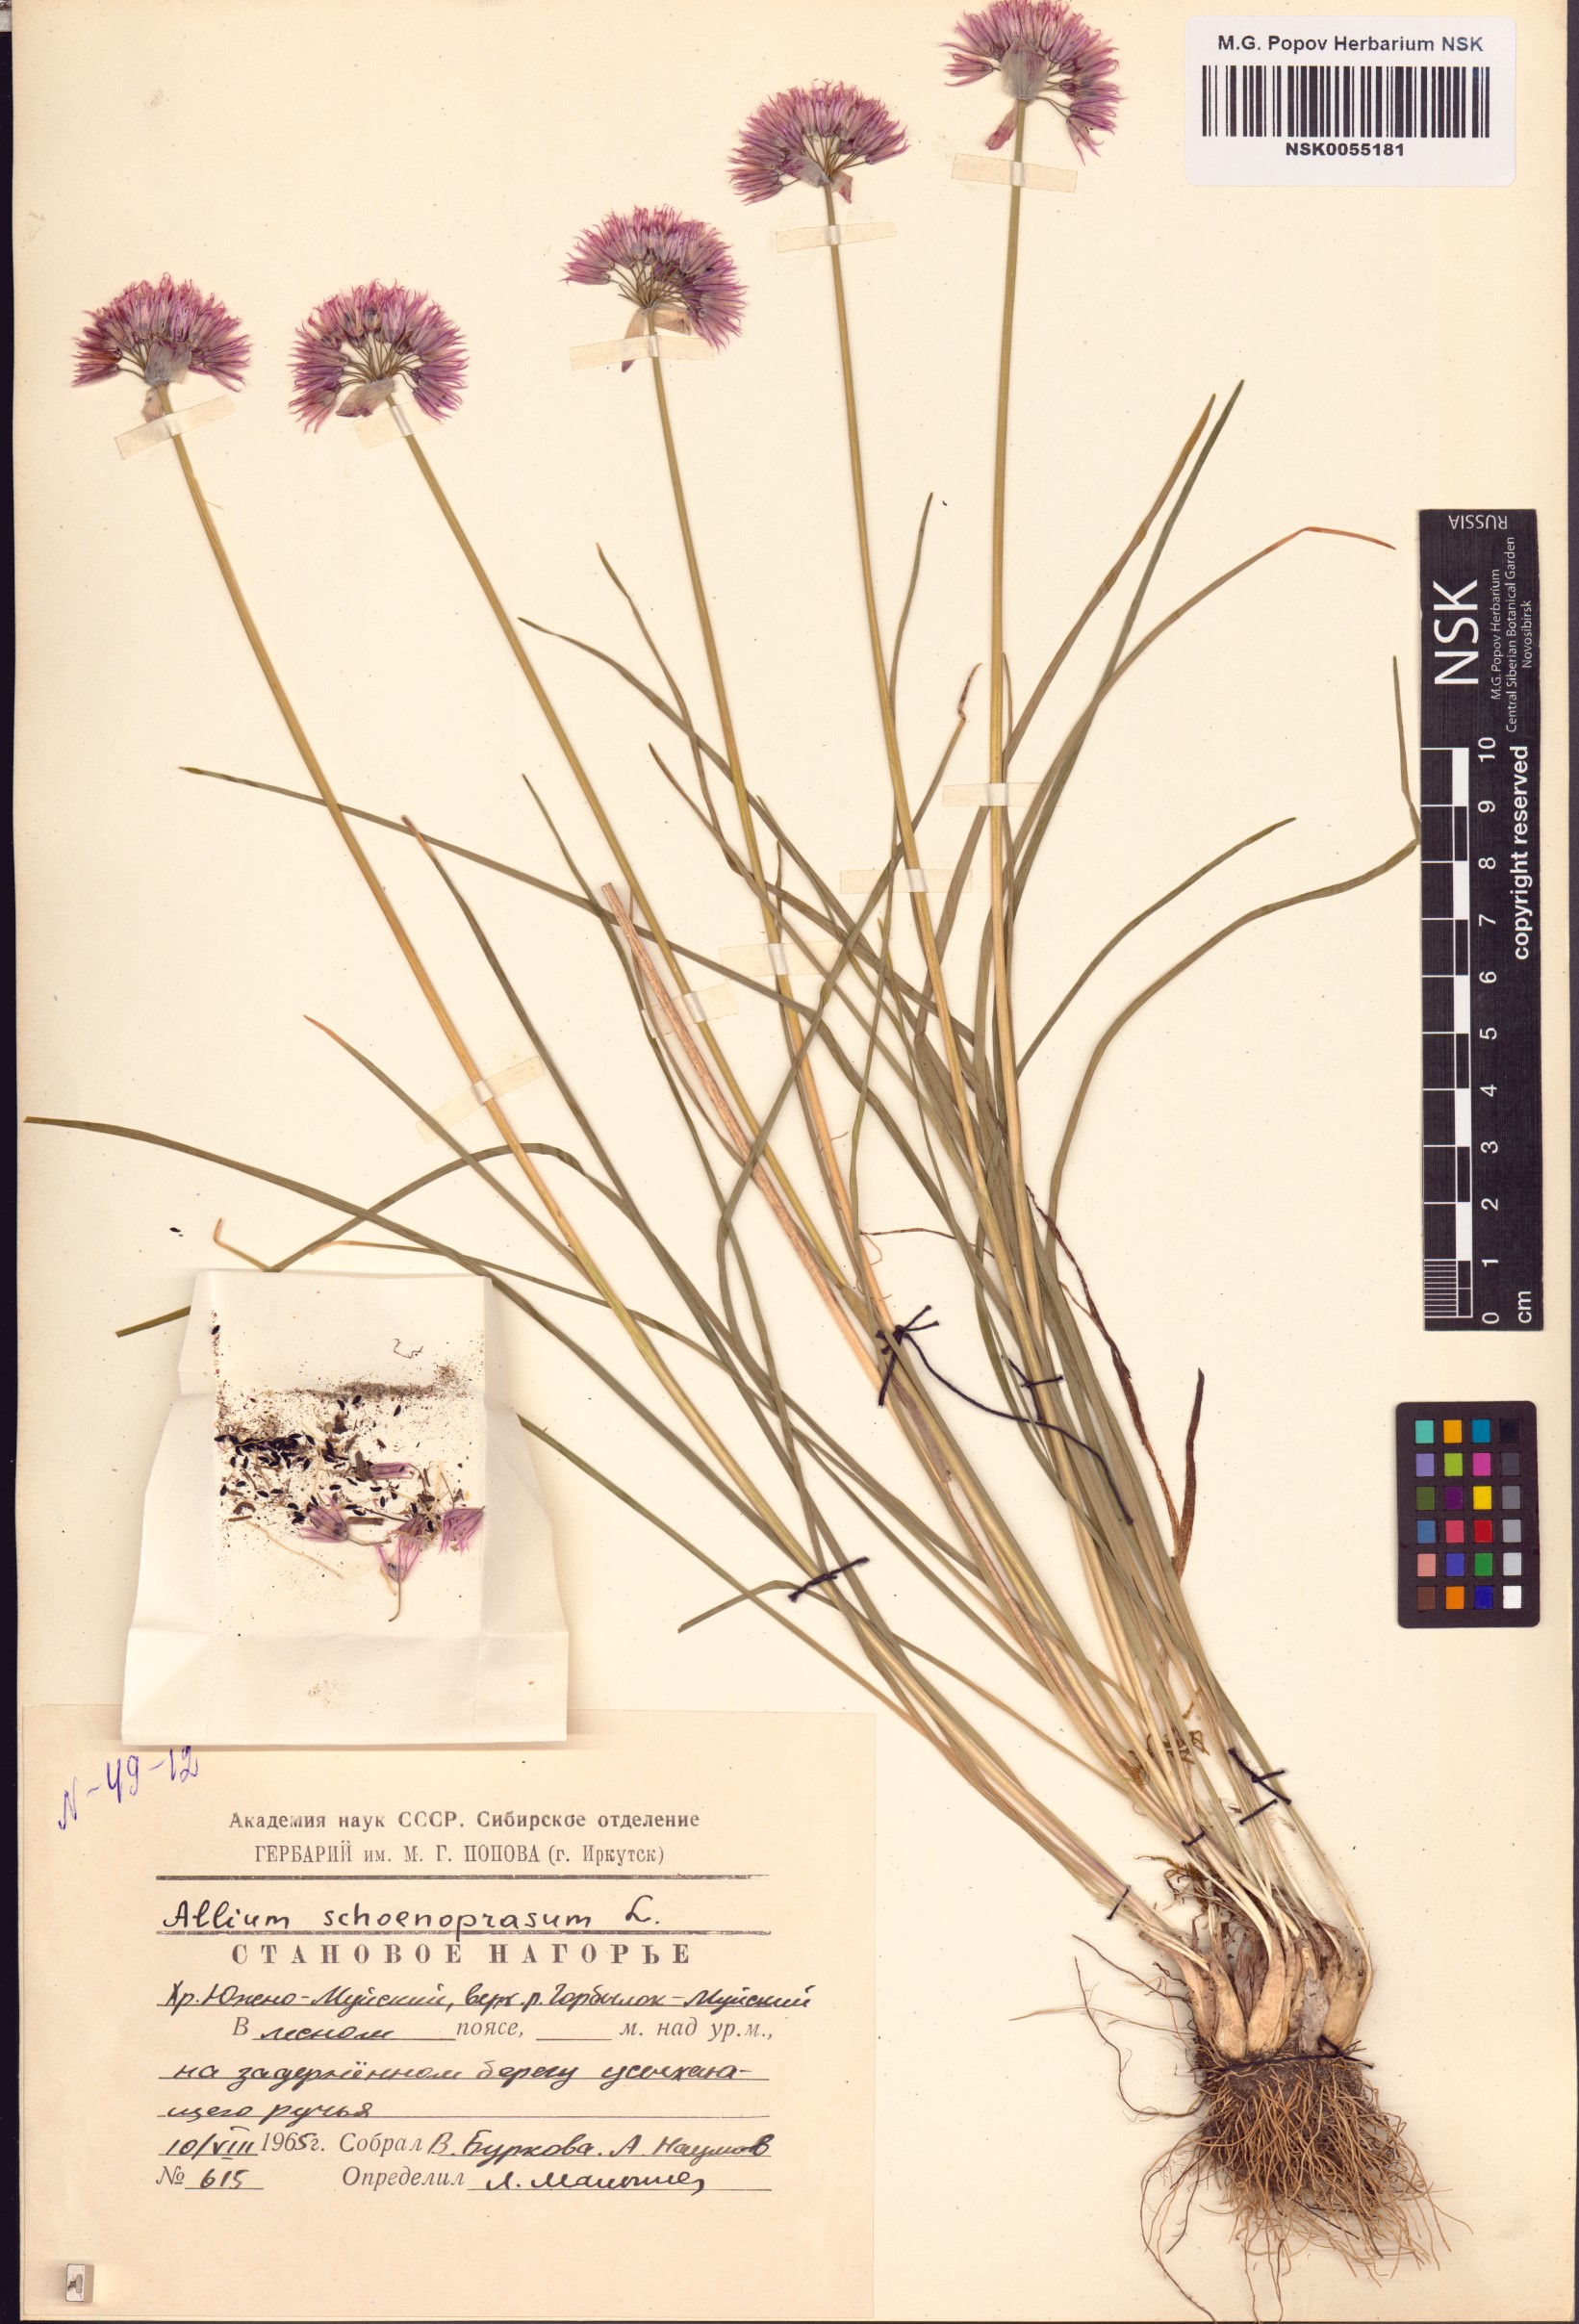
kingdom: Plantae
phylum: Tracheophyta
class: Liliopsida
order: Asparagales
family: Amaryllidaceae
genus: Allium
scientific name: Allium schoenoprasum
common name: Chives
